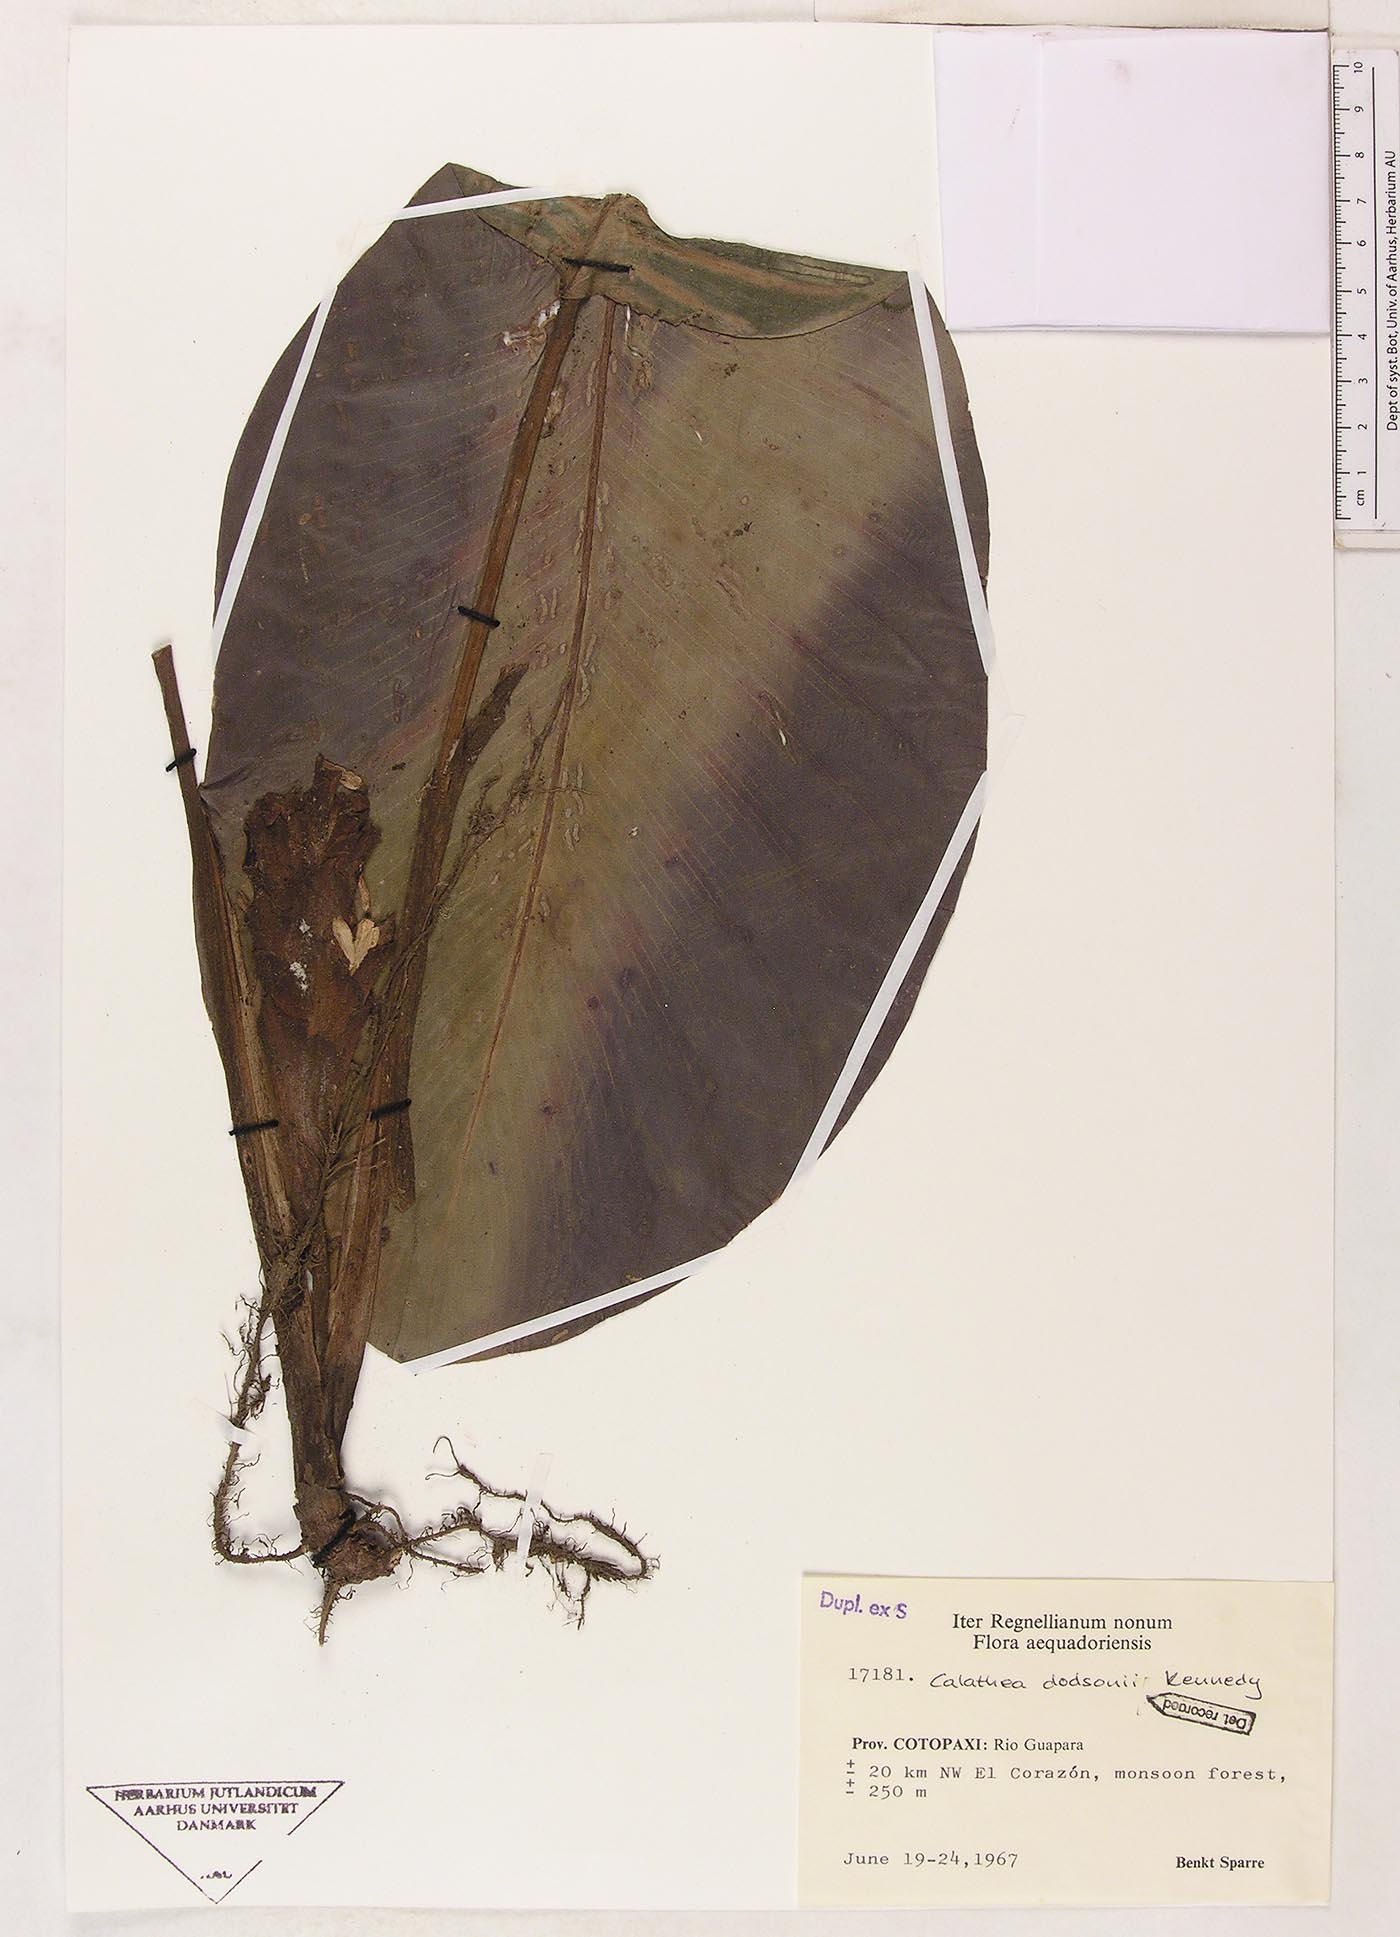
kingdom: Plantae
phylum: Tracheophyta
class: Liliopsida
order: Zingiberales
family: Marantaceae
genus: Goeppertia
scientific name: Goeppertia dodsonii
